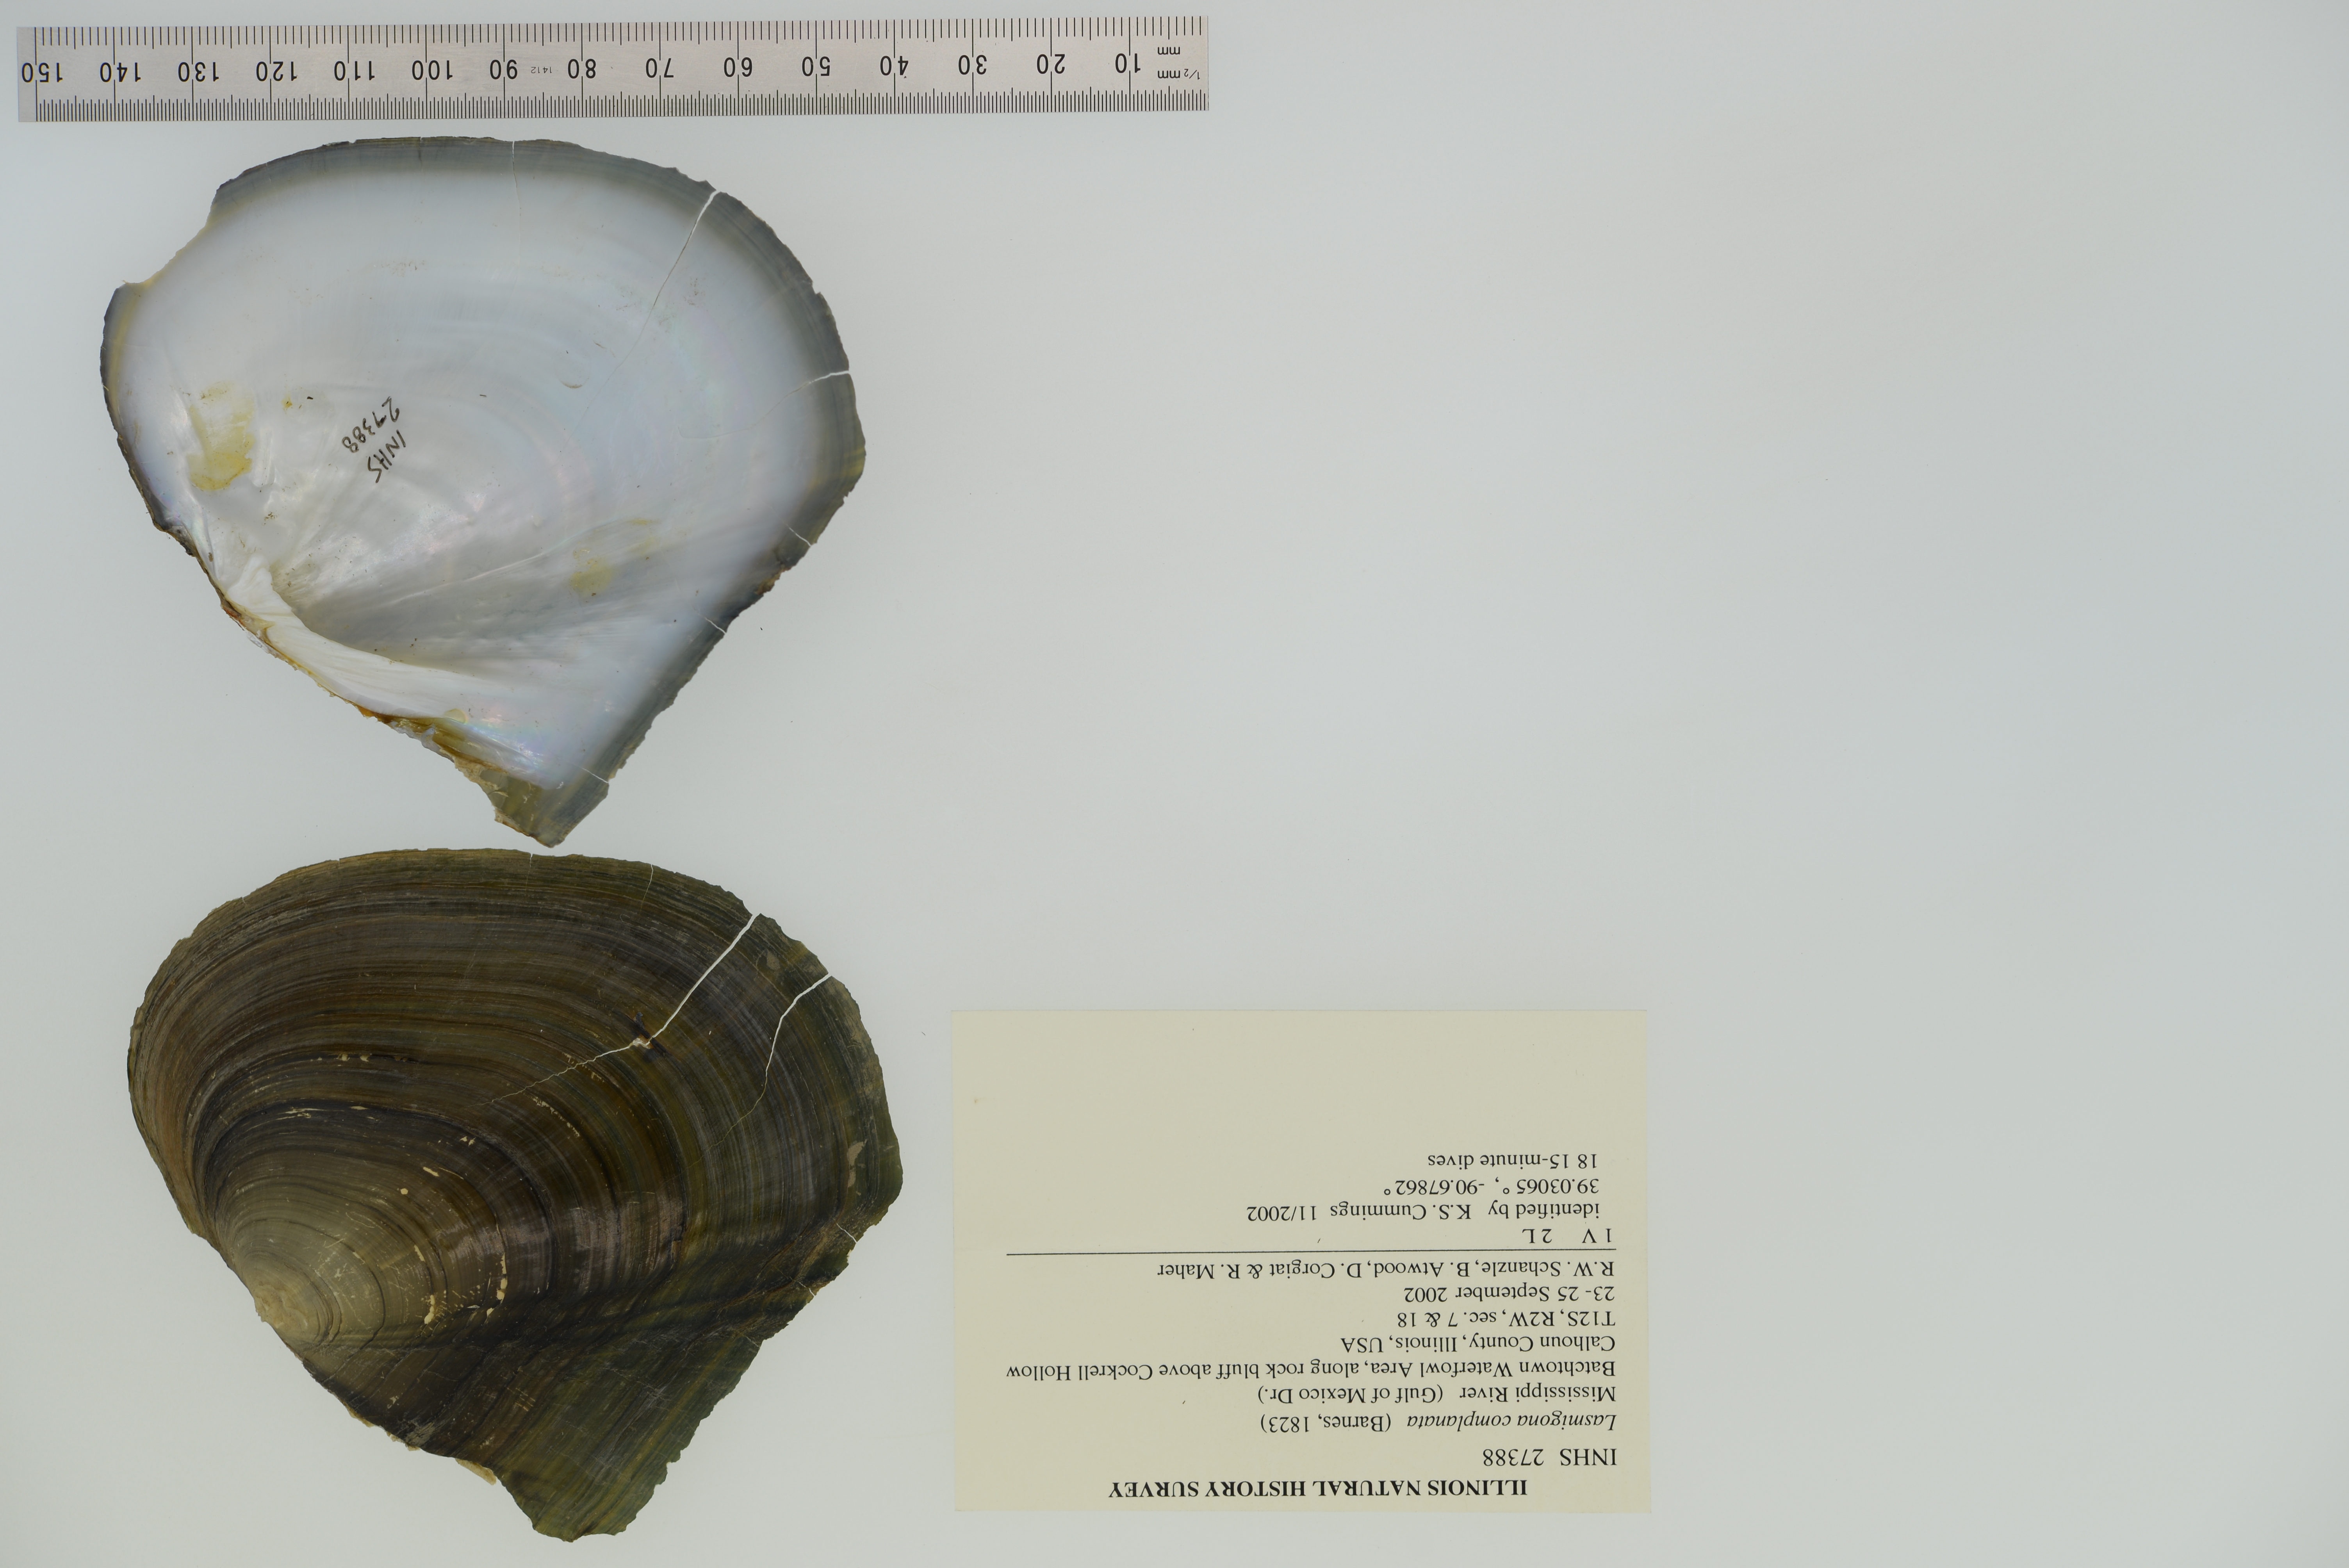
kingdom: Animalia
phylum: Mollusca
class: Bivalvia
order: Unionida
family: Unionidae
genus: Lasmigona
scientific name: Lasmigona complanata
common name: White heelsplitter
